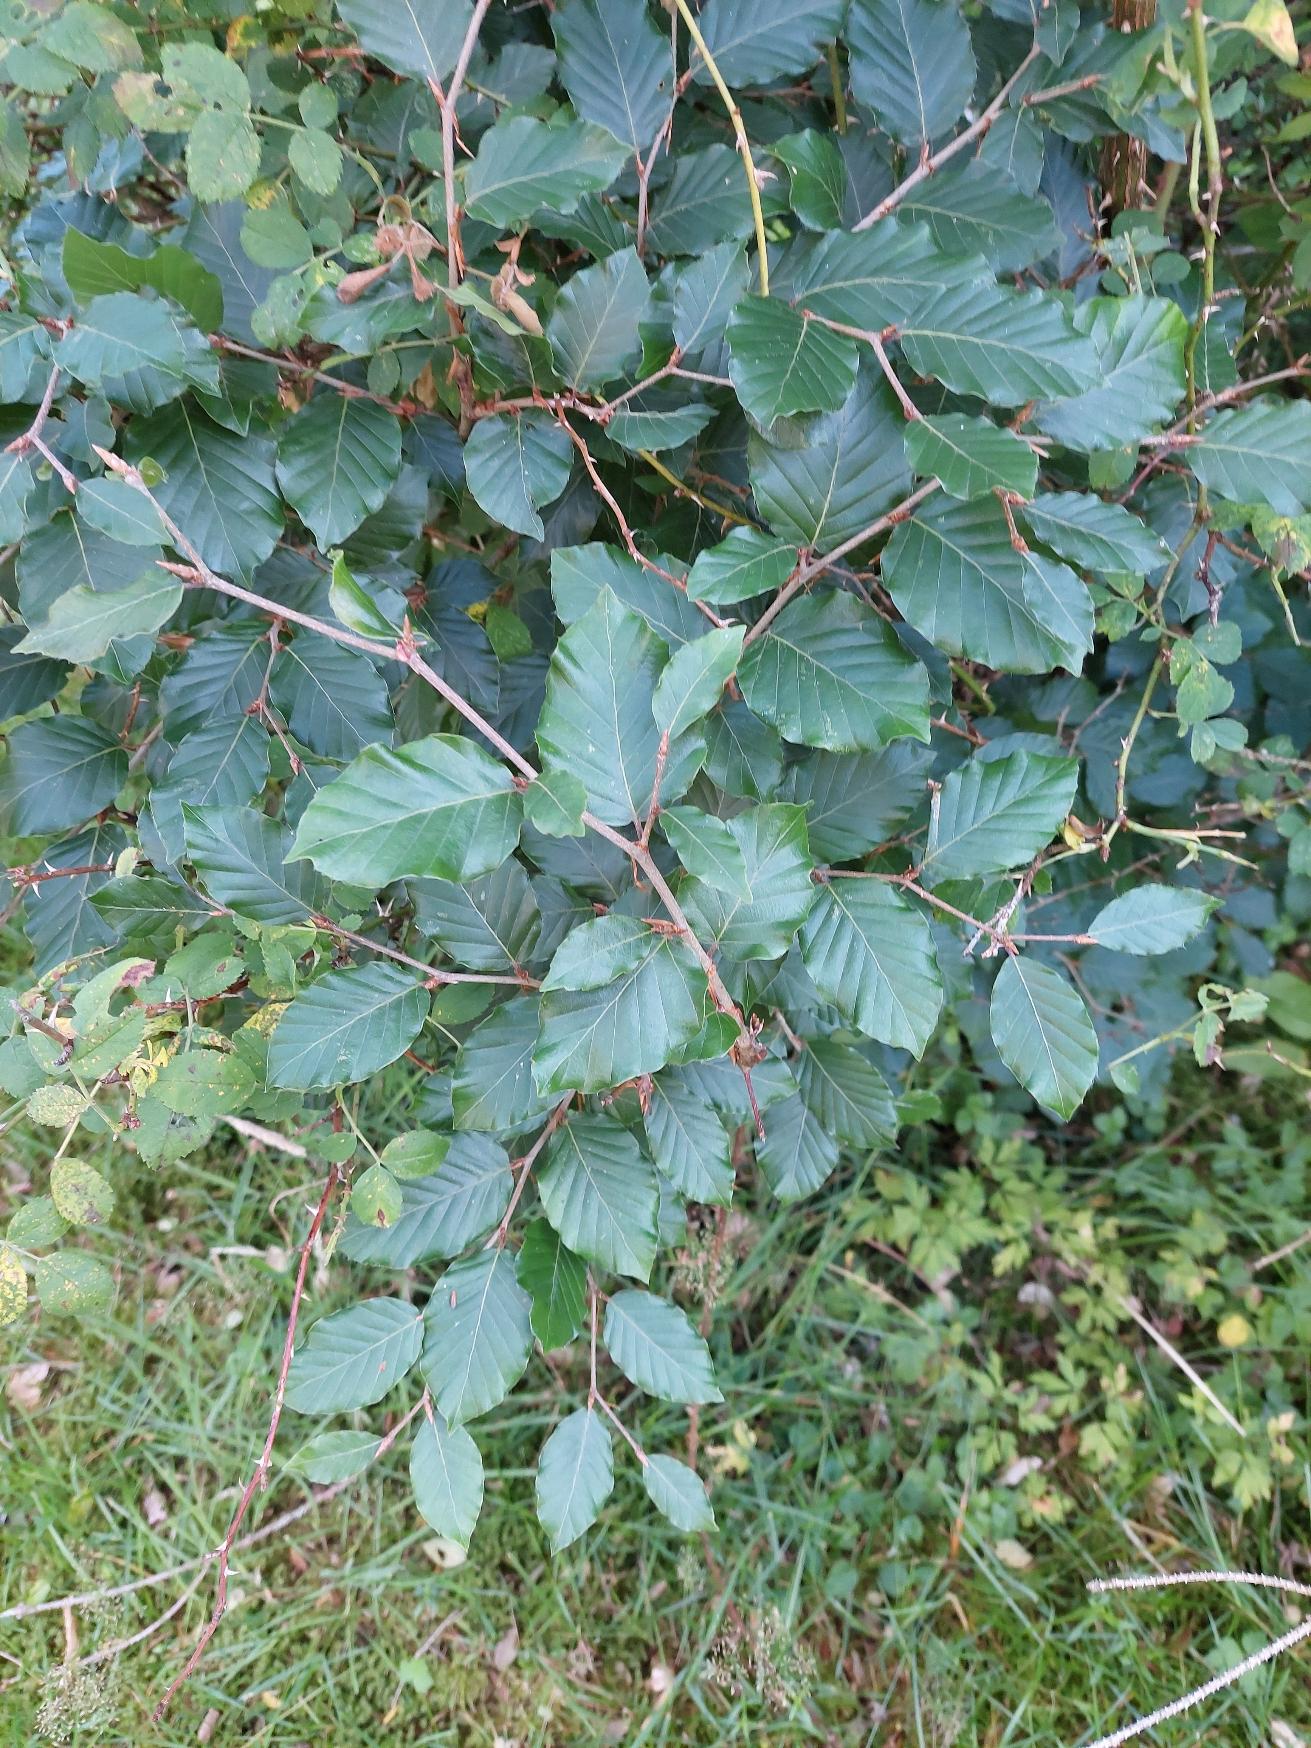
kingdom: Plantae
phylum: Tracheophyta
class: Magnoliopsida
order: Fagales
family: Fagaceae
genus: Fagus
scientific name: Fagus sylvatica
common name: Bøg
